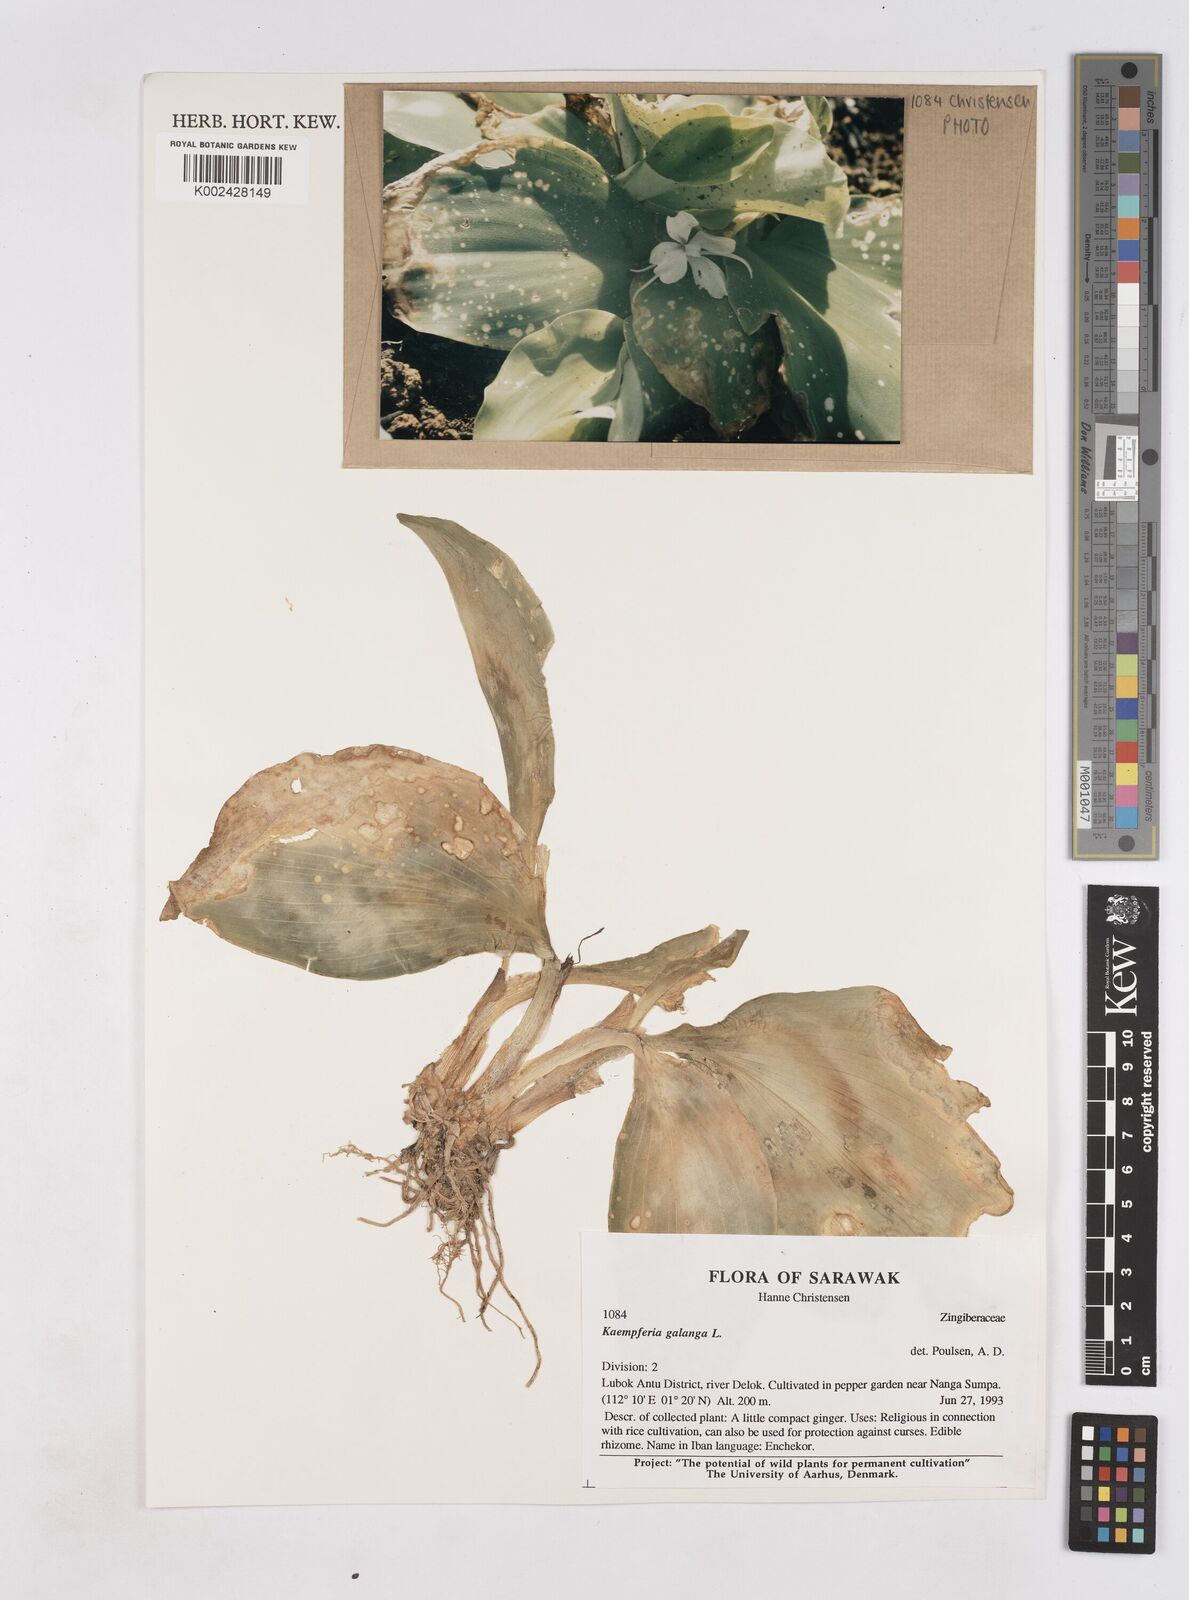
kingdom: Plantae
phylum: Tracheophyta
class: Liliopsida
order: Zingiberales
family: Zingiberaceae
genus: Kaempferia
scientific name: Kaempferia galanga
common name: Aromatic ginger
